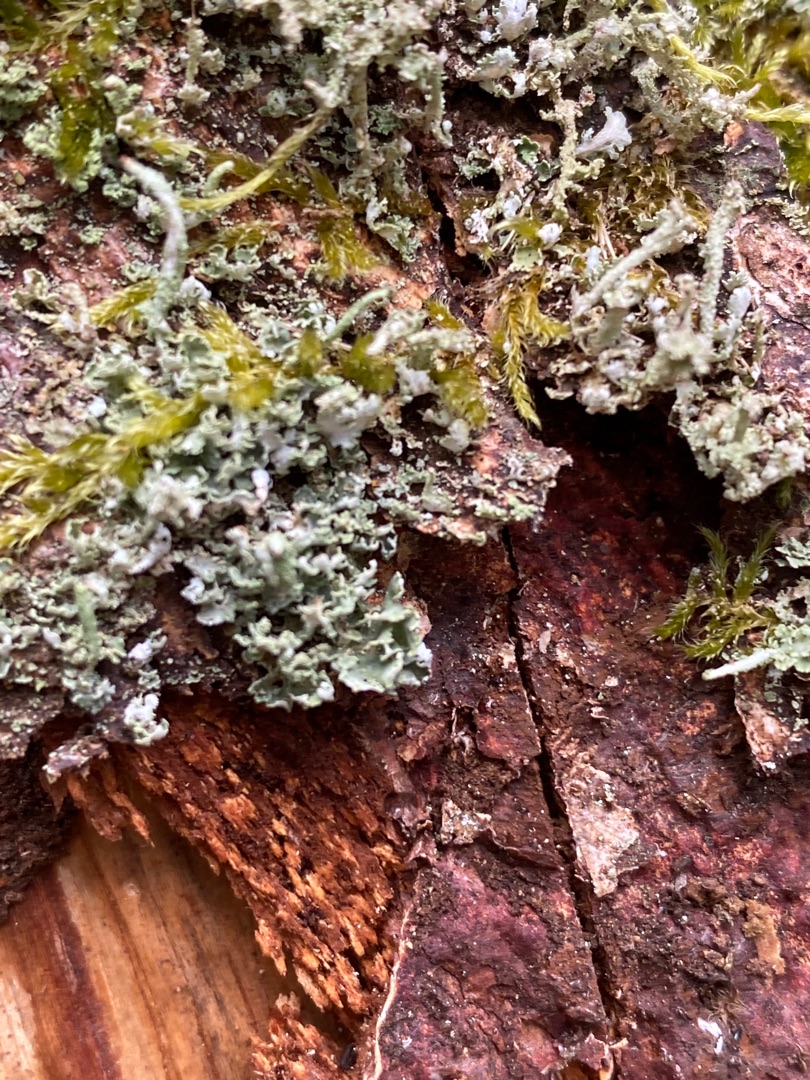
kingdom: Fungi
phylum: Ascomycota
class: Lecanoromycetes
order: Lecanorales
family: Cladoniaceae
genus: Cladonia
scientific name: Cladonia coniocraea
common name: Træfods-bægerlav
